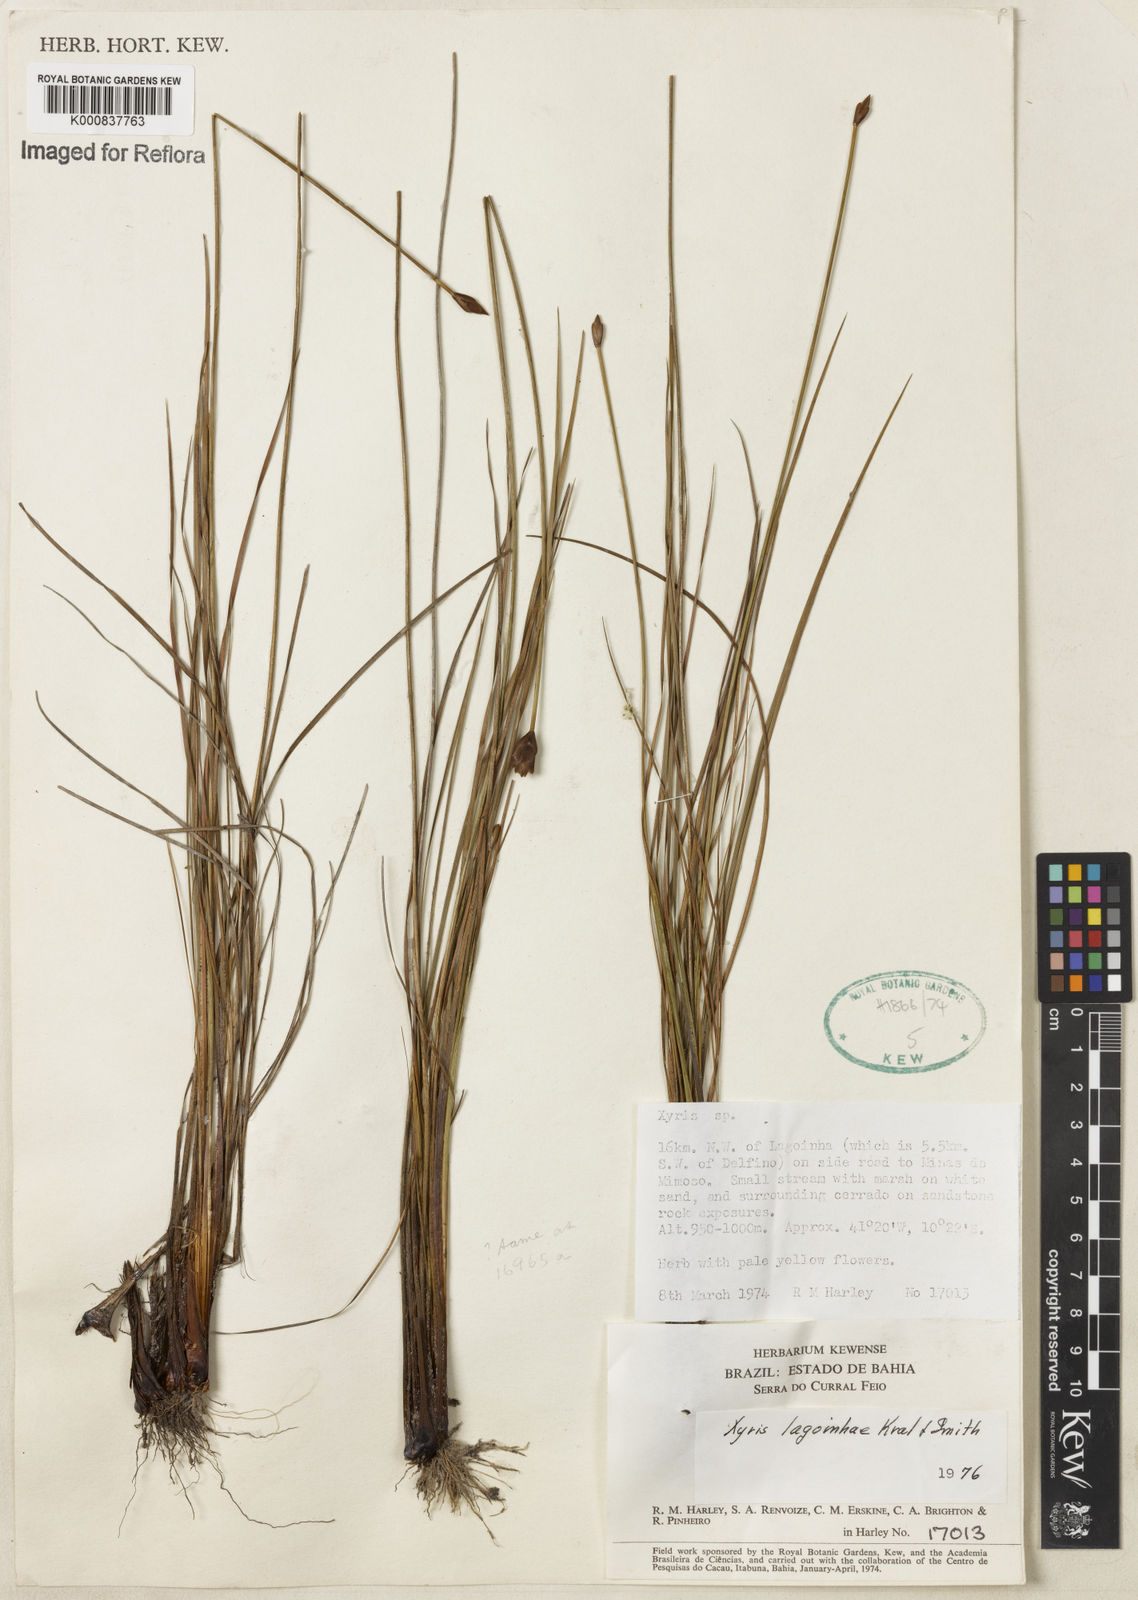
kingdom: Plantae
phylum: Tracheophyta
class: Liliopsida
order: Poales
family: Xyridaceae
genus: Xyris
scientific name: Xyris lagoinhae
